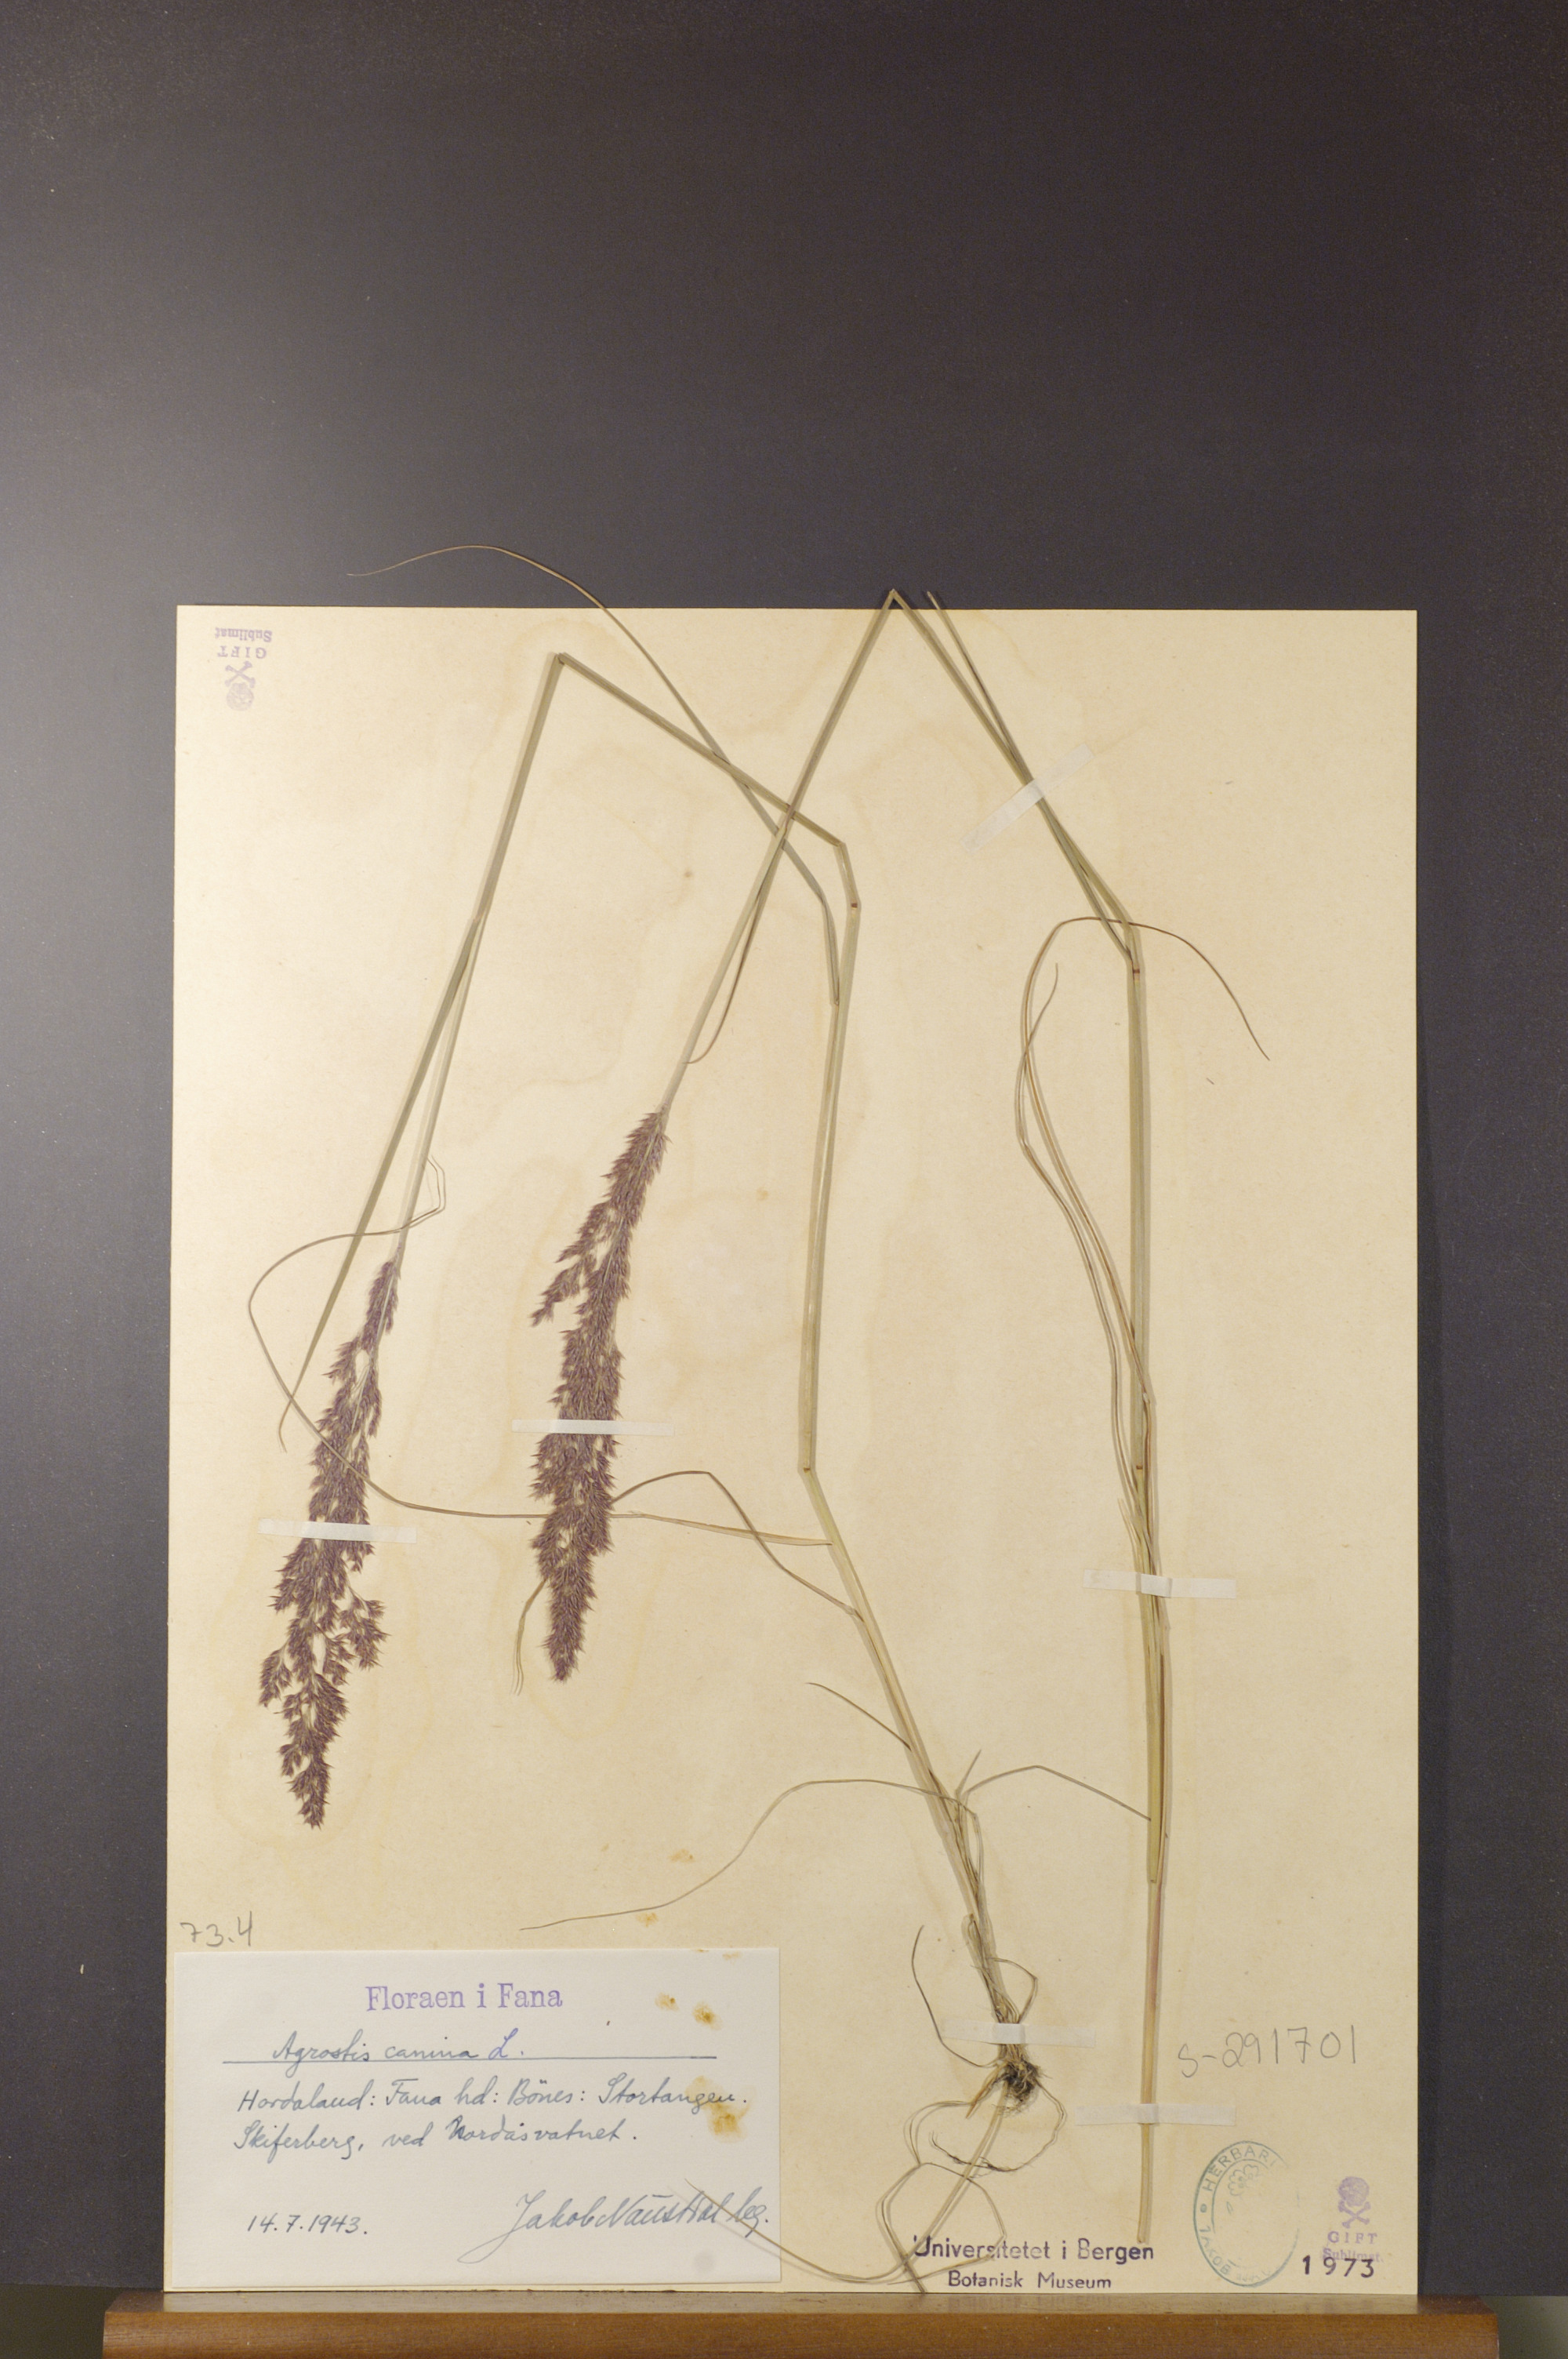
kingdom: Plantae
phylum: Tracheophyta
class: Liliopsida
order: Poales
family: Poaceae
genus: Agrostis
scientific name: Agrostis canina
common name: Velvet bent
